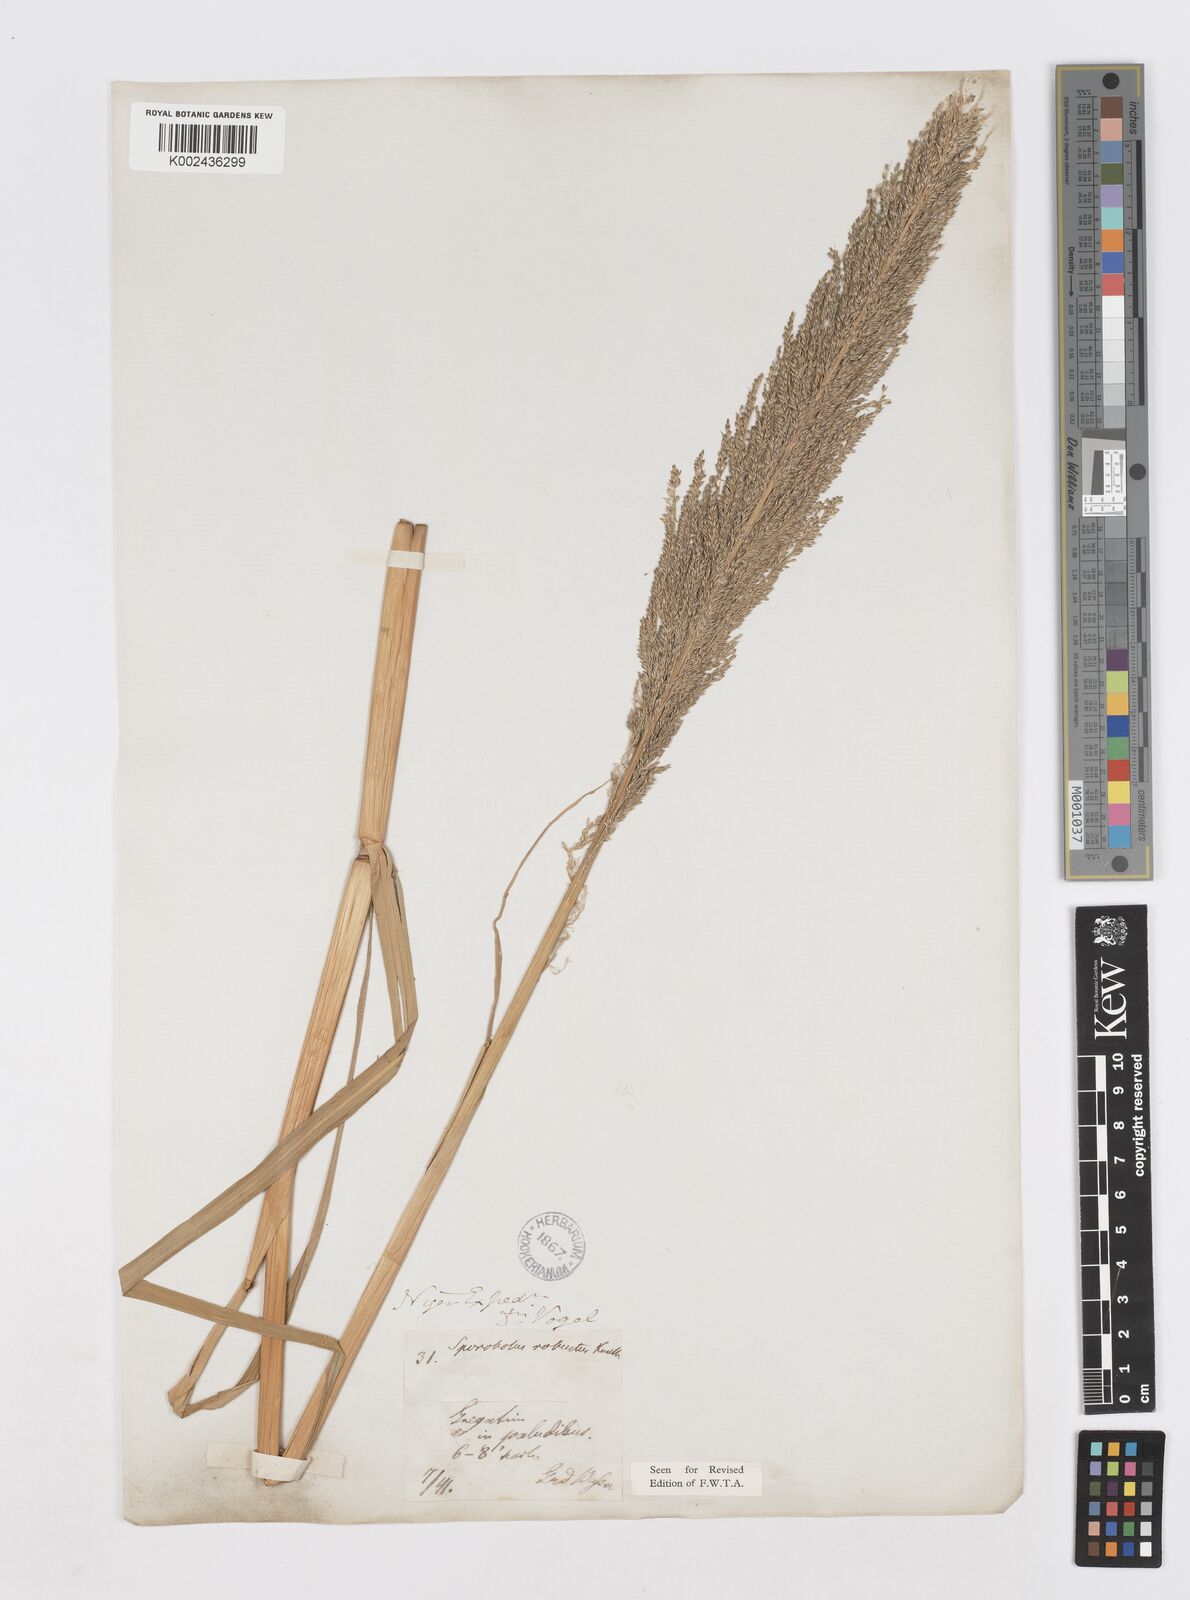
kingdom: Plantae
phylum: Tracheophyta
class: Liliopsida
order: Poales
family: Poaceae
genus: Sporobolus
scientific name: Sporobolus robustus
